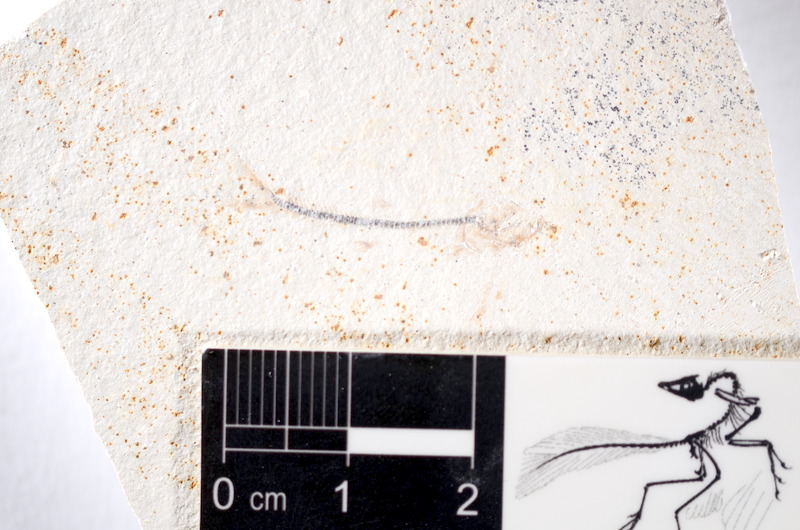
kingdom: Animalia
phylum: Chordata
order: Salmoniformes
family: Orthogonikleithridae
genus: Orthogonikleithrus
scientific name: Orthogonikleithrus hoelli
